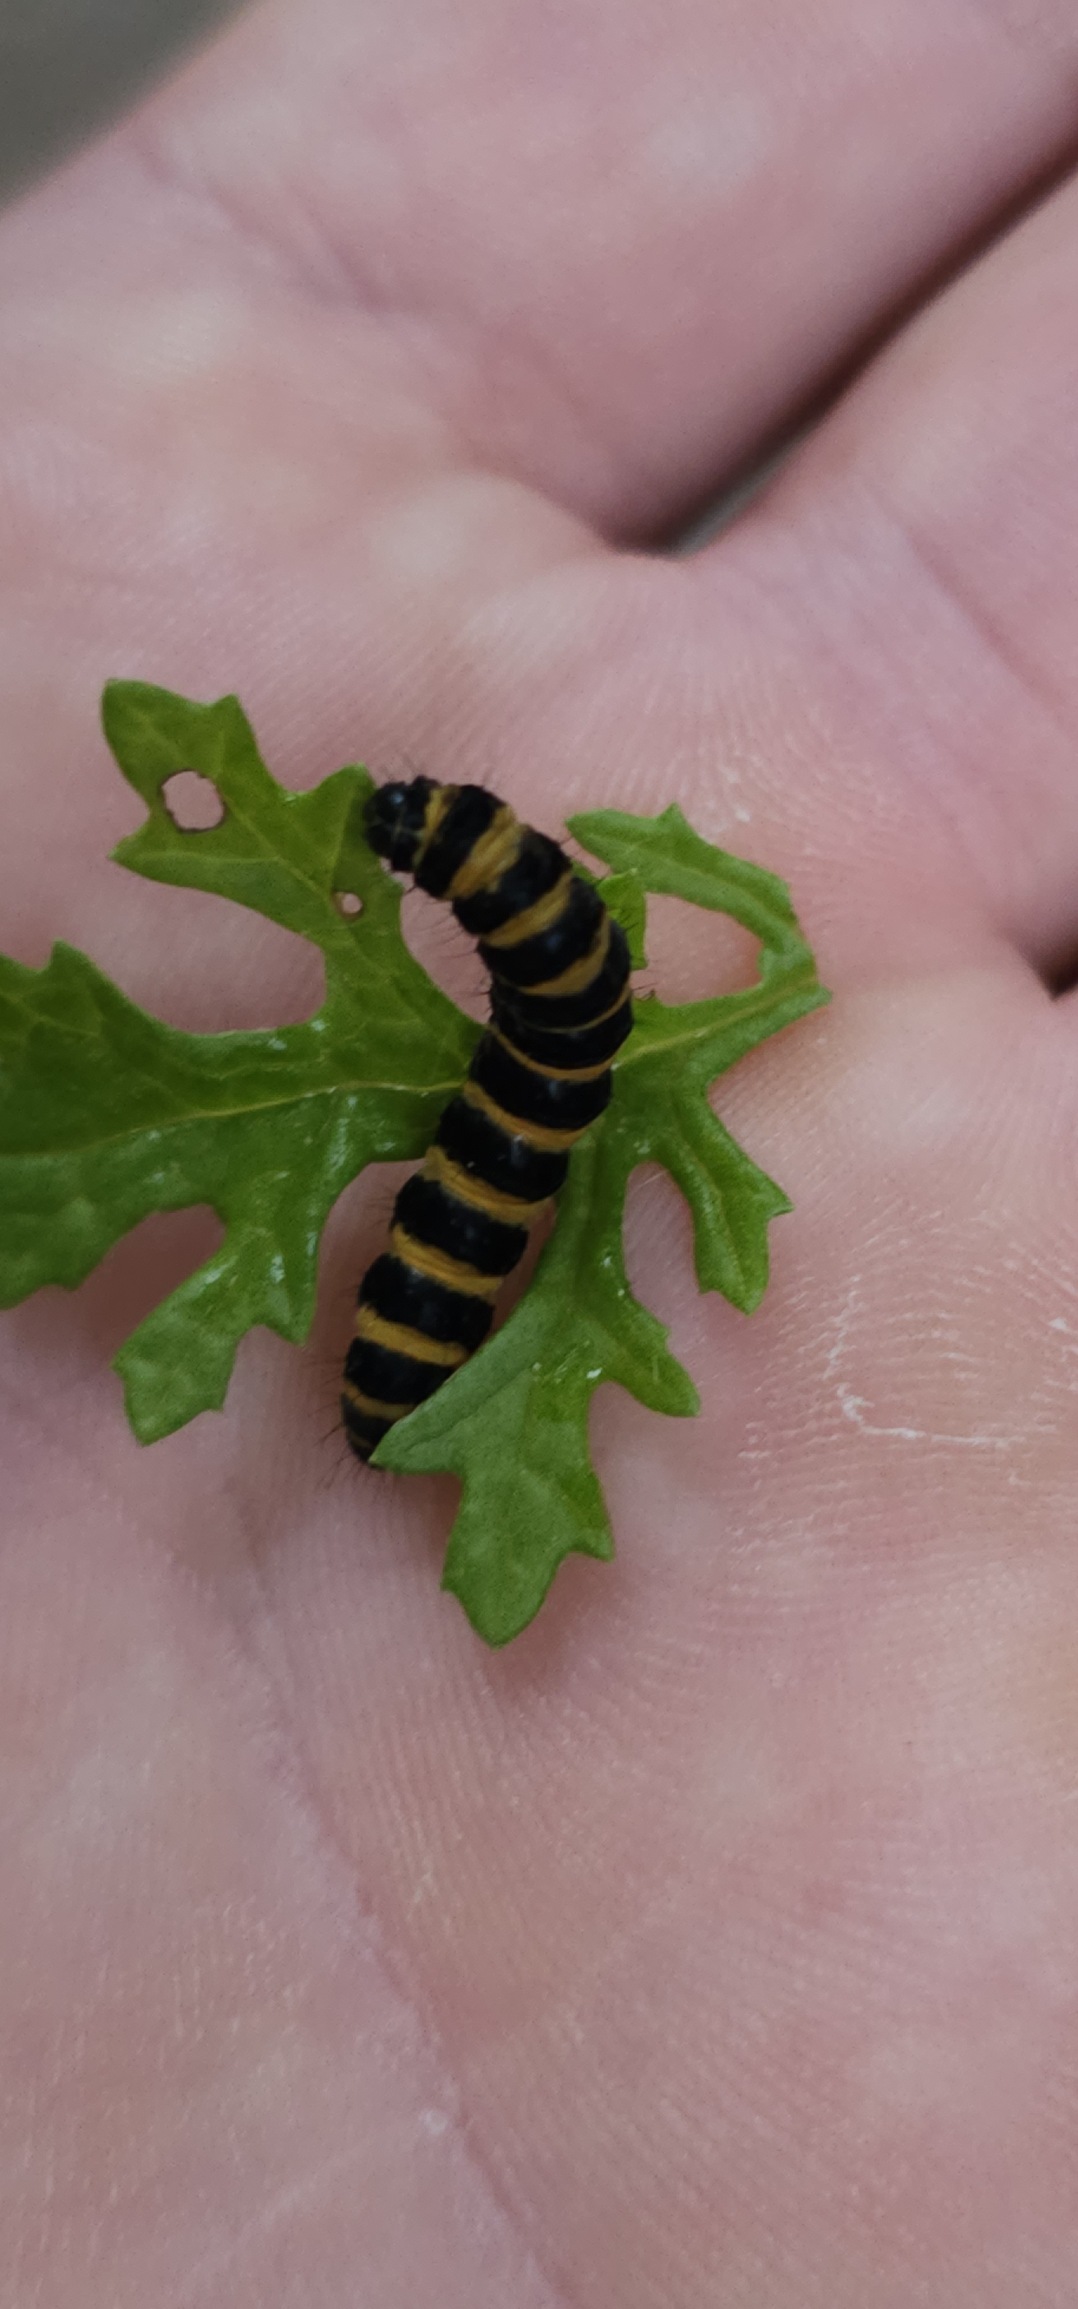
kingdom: Animalia
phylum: Arthropoda
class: Insecta
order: Lepidoptera
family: Erebidae
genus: Tyria
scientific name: Tyria jacobaeae
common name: Blodplet
